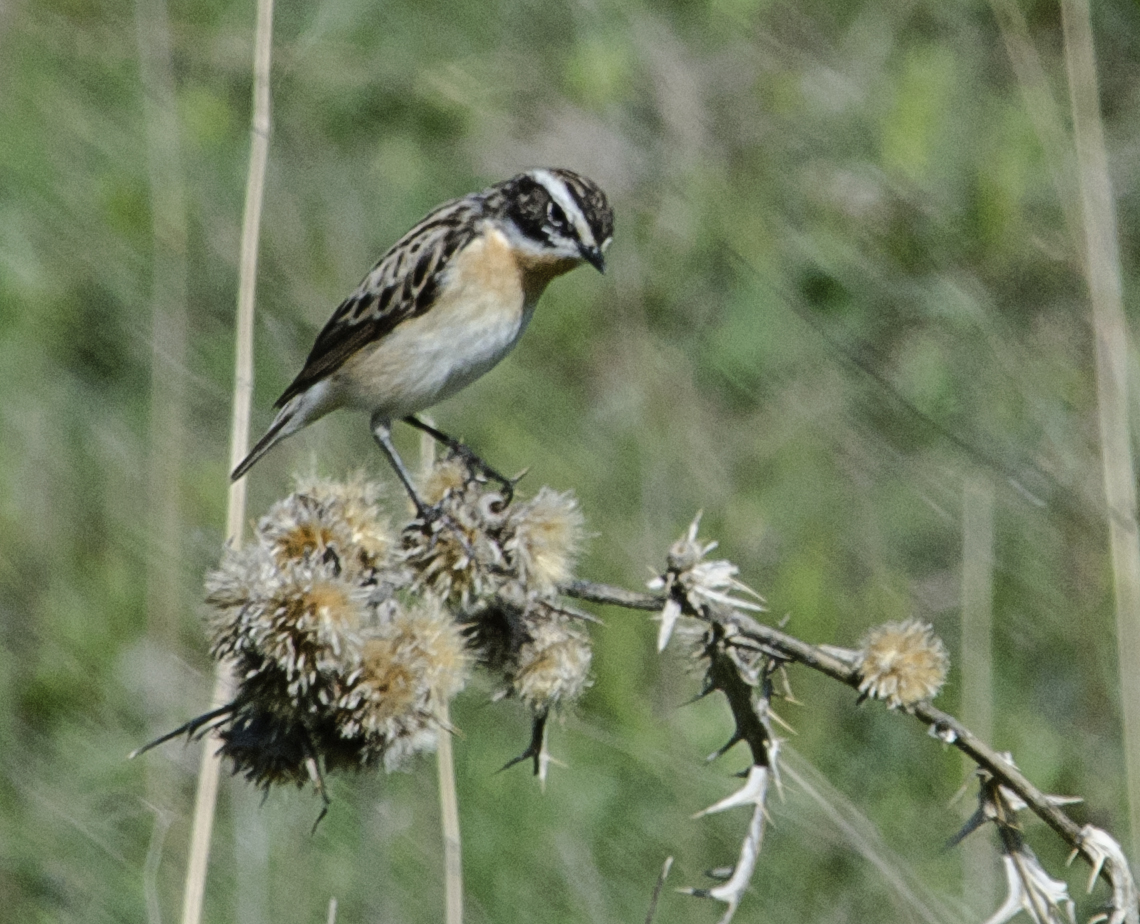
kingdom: Animalia
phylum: Chordata
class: Aves
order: Passeriformes
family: Muscicapidae
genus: Saxicola
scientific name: Saxicola rubetra
